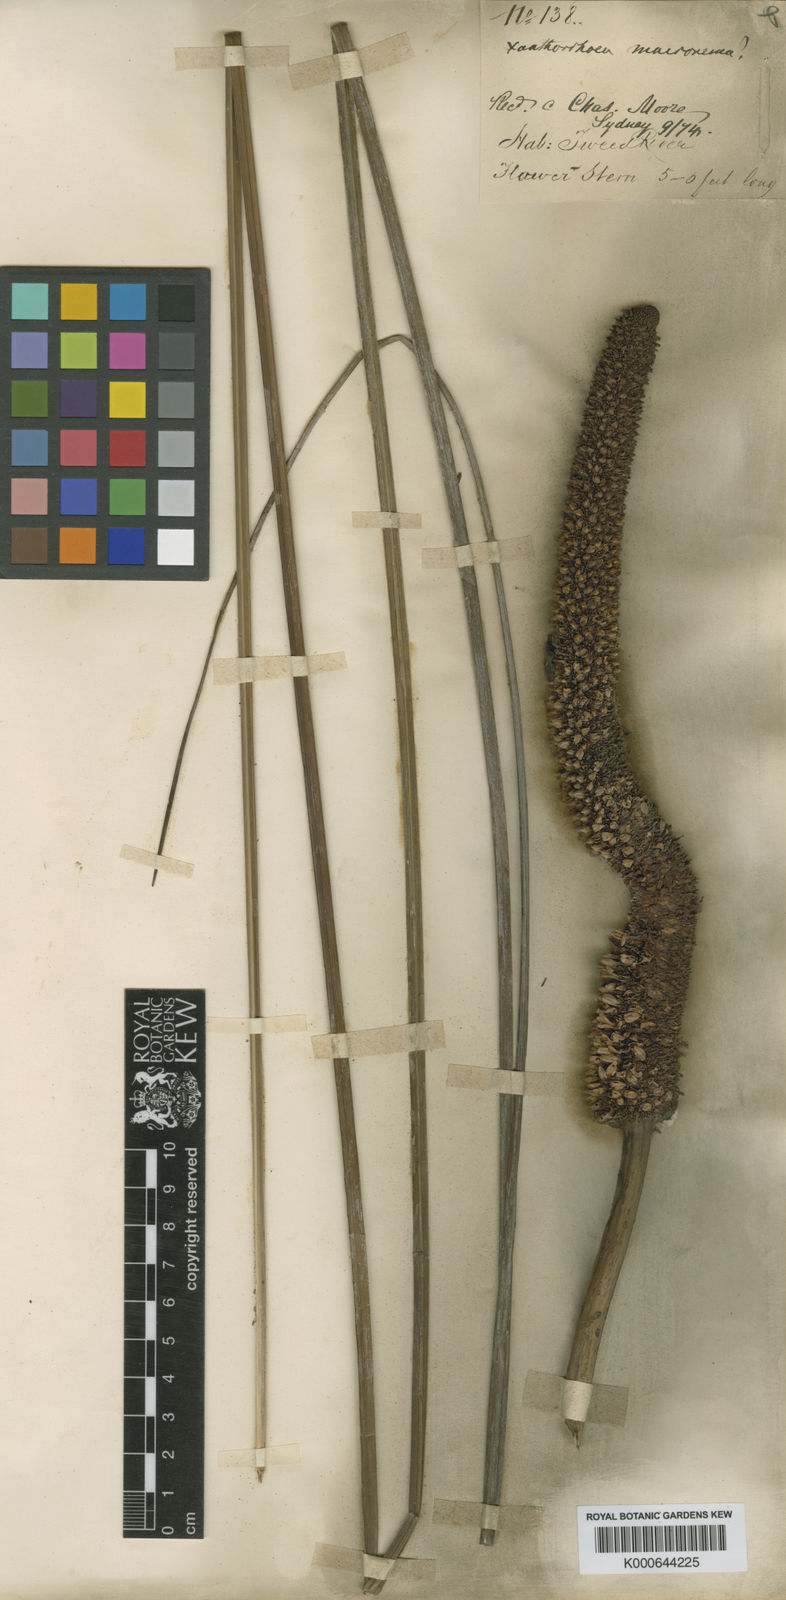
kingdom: Plantae
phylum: Tracheophyta
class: Liliopsida
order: Asparagales
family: Asphodelaceae
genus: Xanthorrhoea
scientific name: Xanthorrhoea macronema
